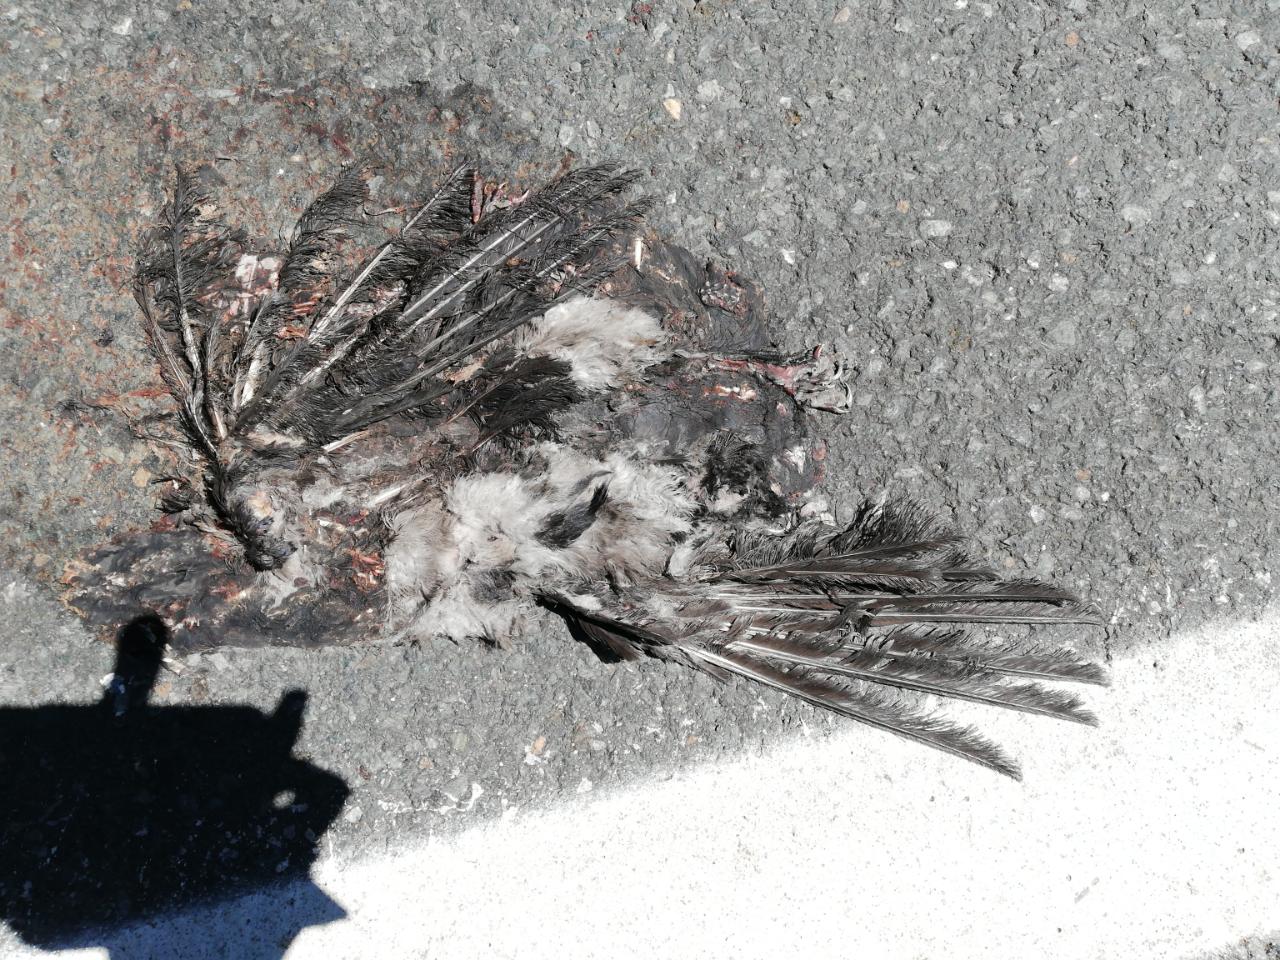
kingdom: Animalia
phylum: Chordata
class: Aves
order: Passeriformes
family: Corvidae
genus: Corvus
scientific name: Corvus corone
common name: Carrion crow
